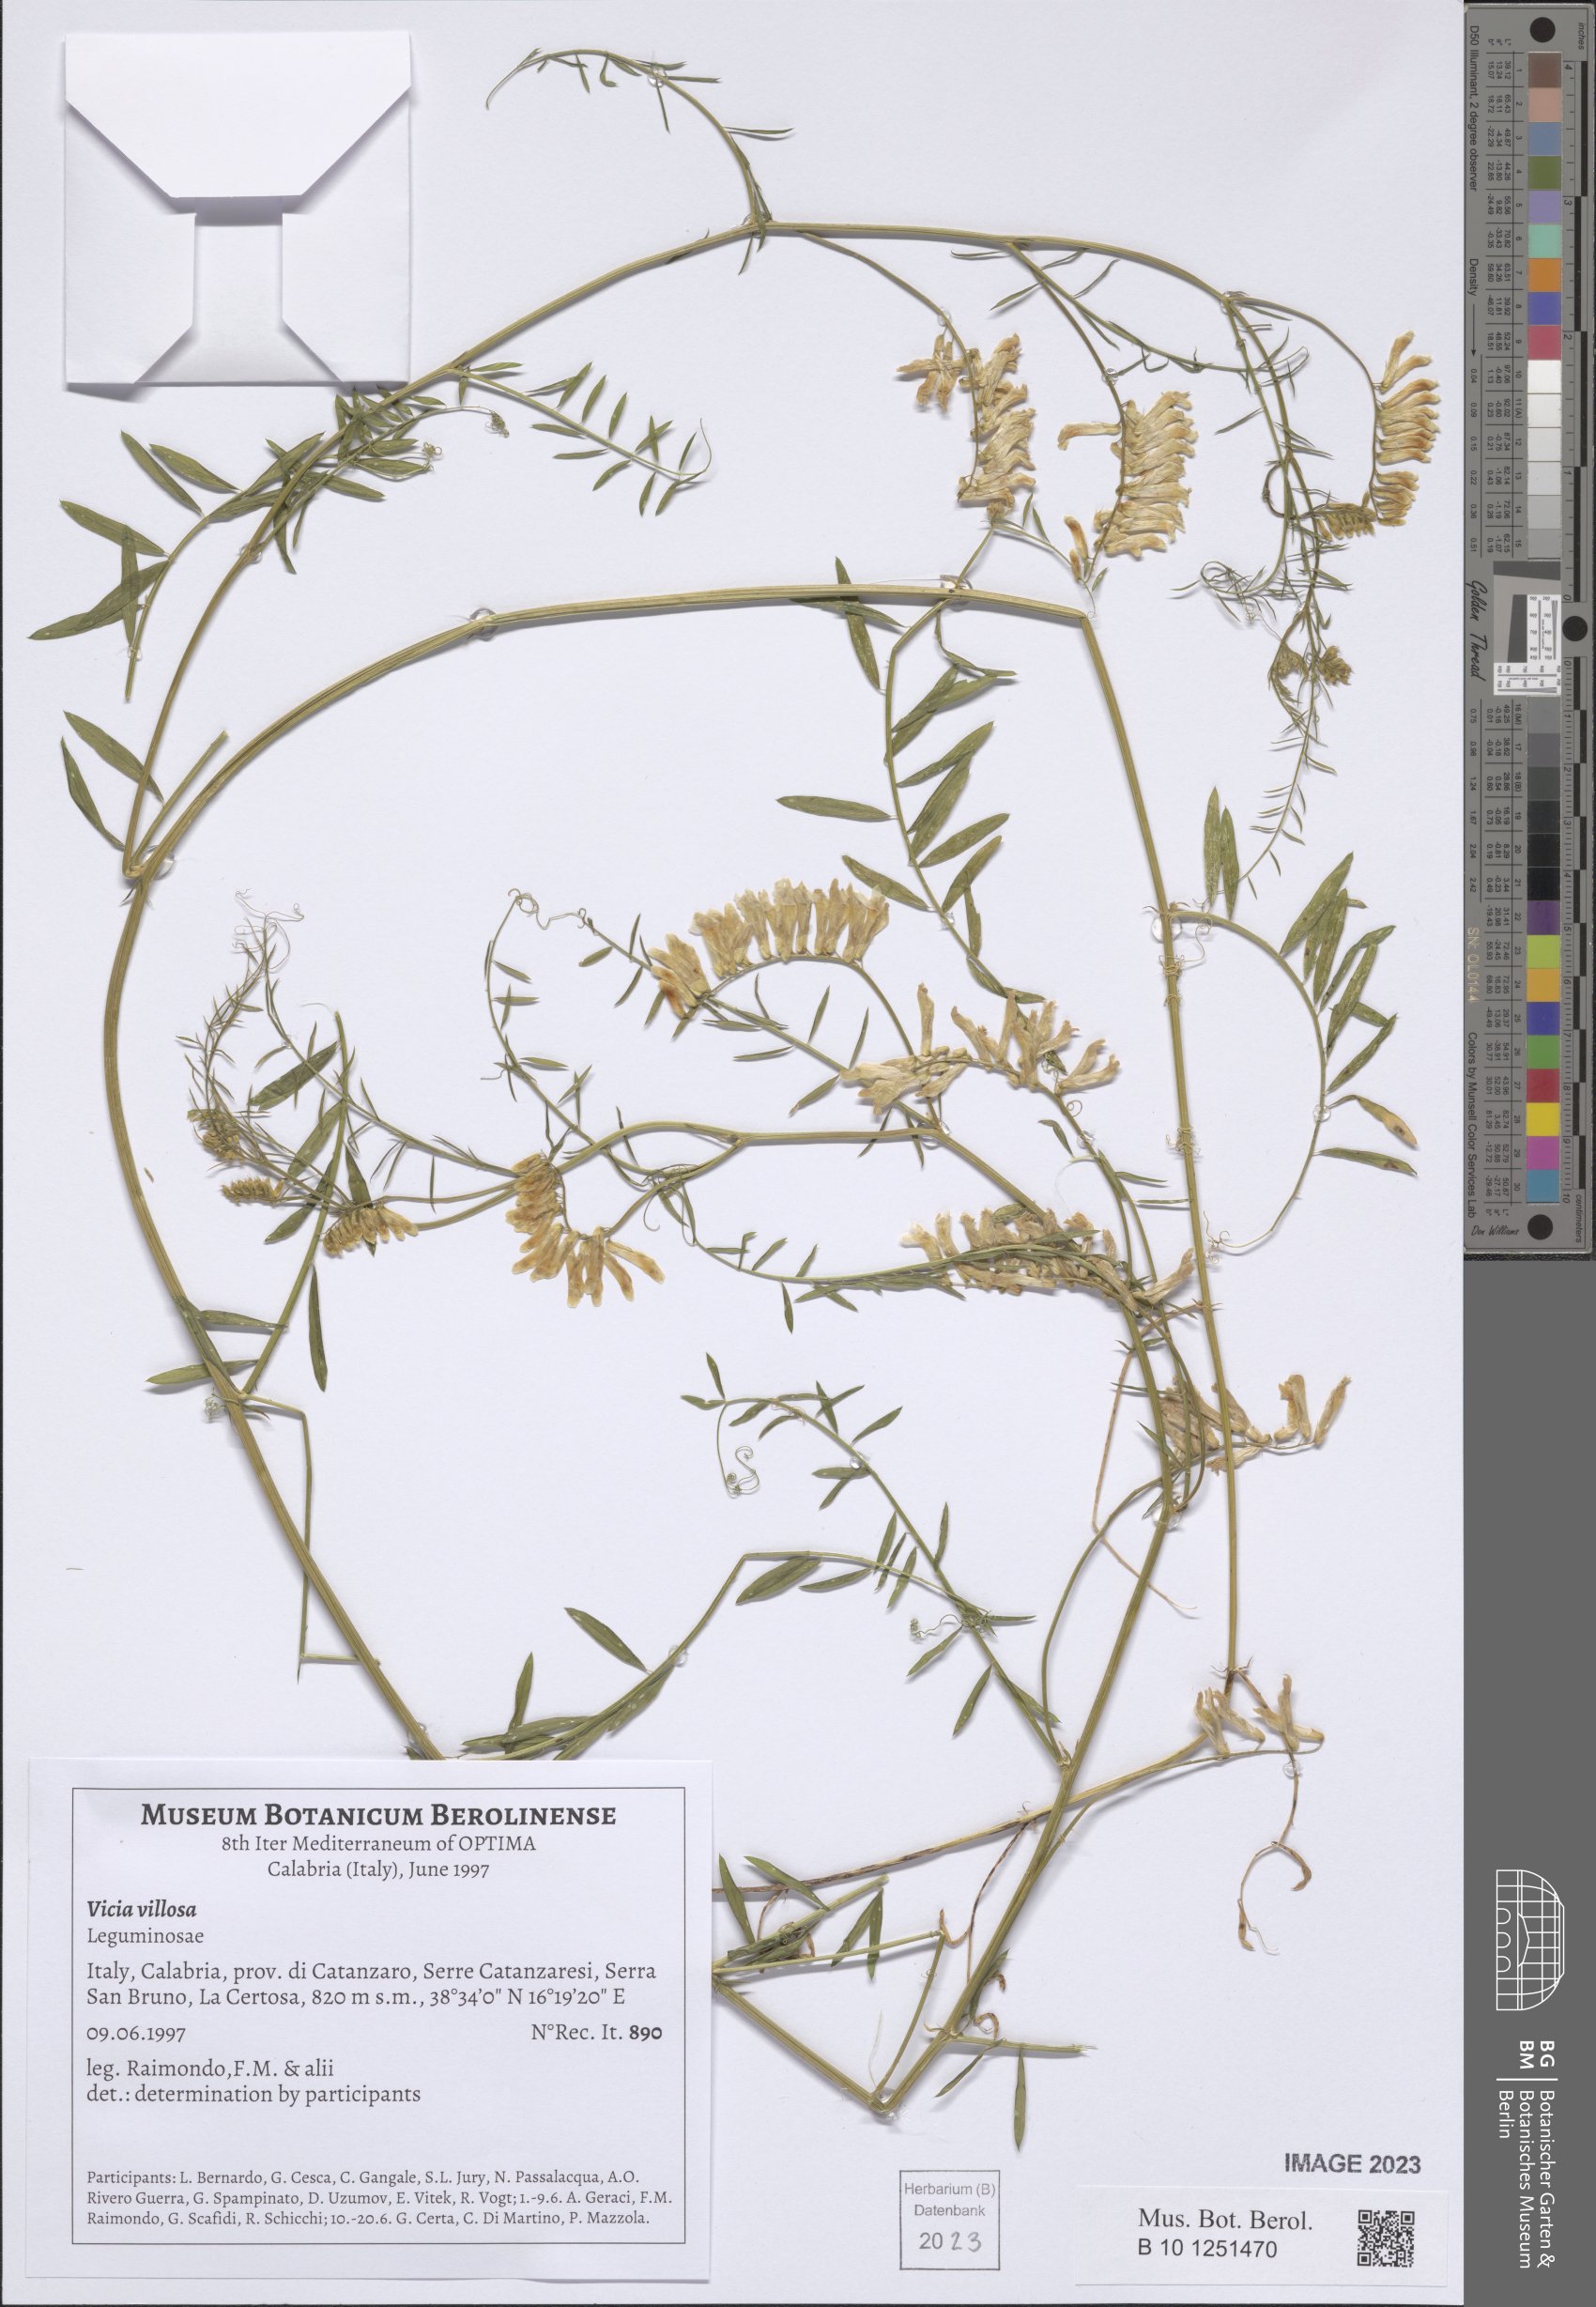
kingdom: Plantae
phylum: Tracheophyta
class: Magnoliopsida
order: Fabales
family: Fabaceae
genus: Vicia
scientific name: Vicia villosa
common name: Fodder vetch
